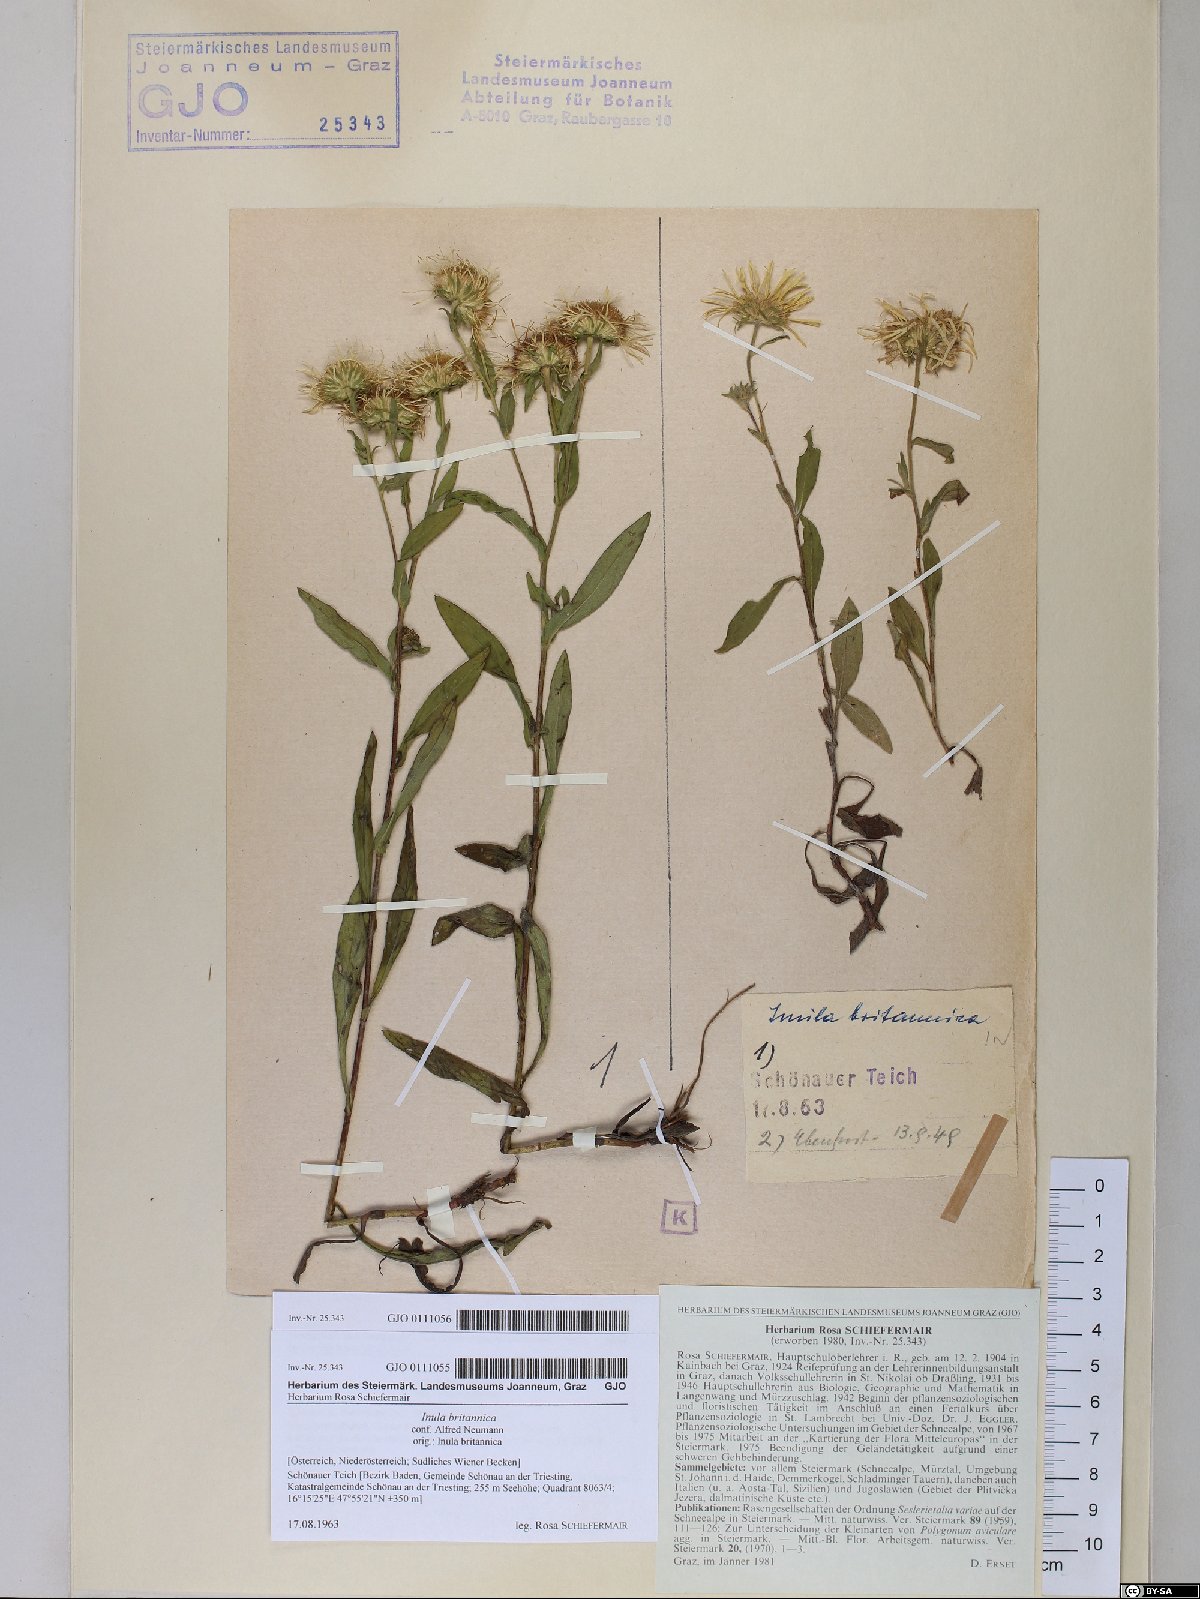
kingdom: Plantae
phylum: Tracheophyta
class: Magnoliopsida
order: Asterales
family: Asteraceae
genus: Pentanema
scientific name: Pentanema britannicum
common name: British elecampane
